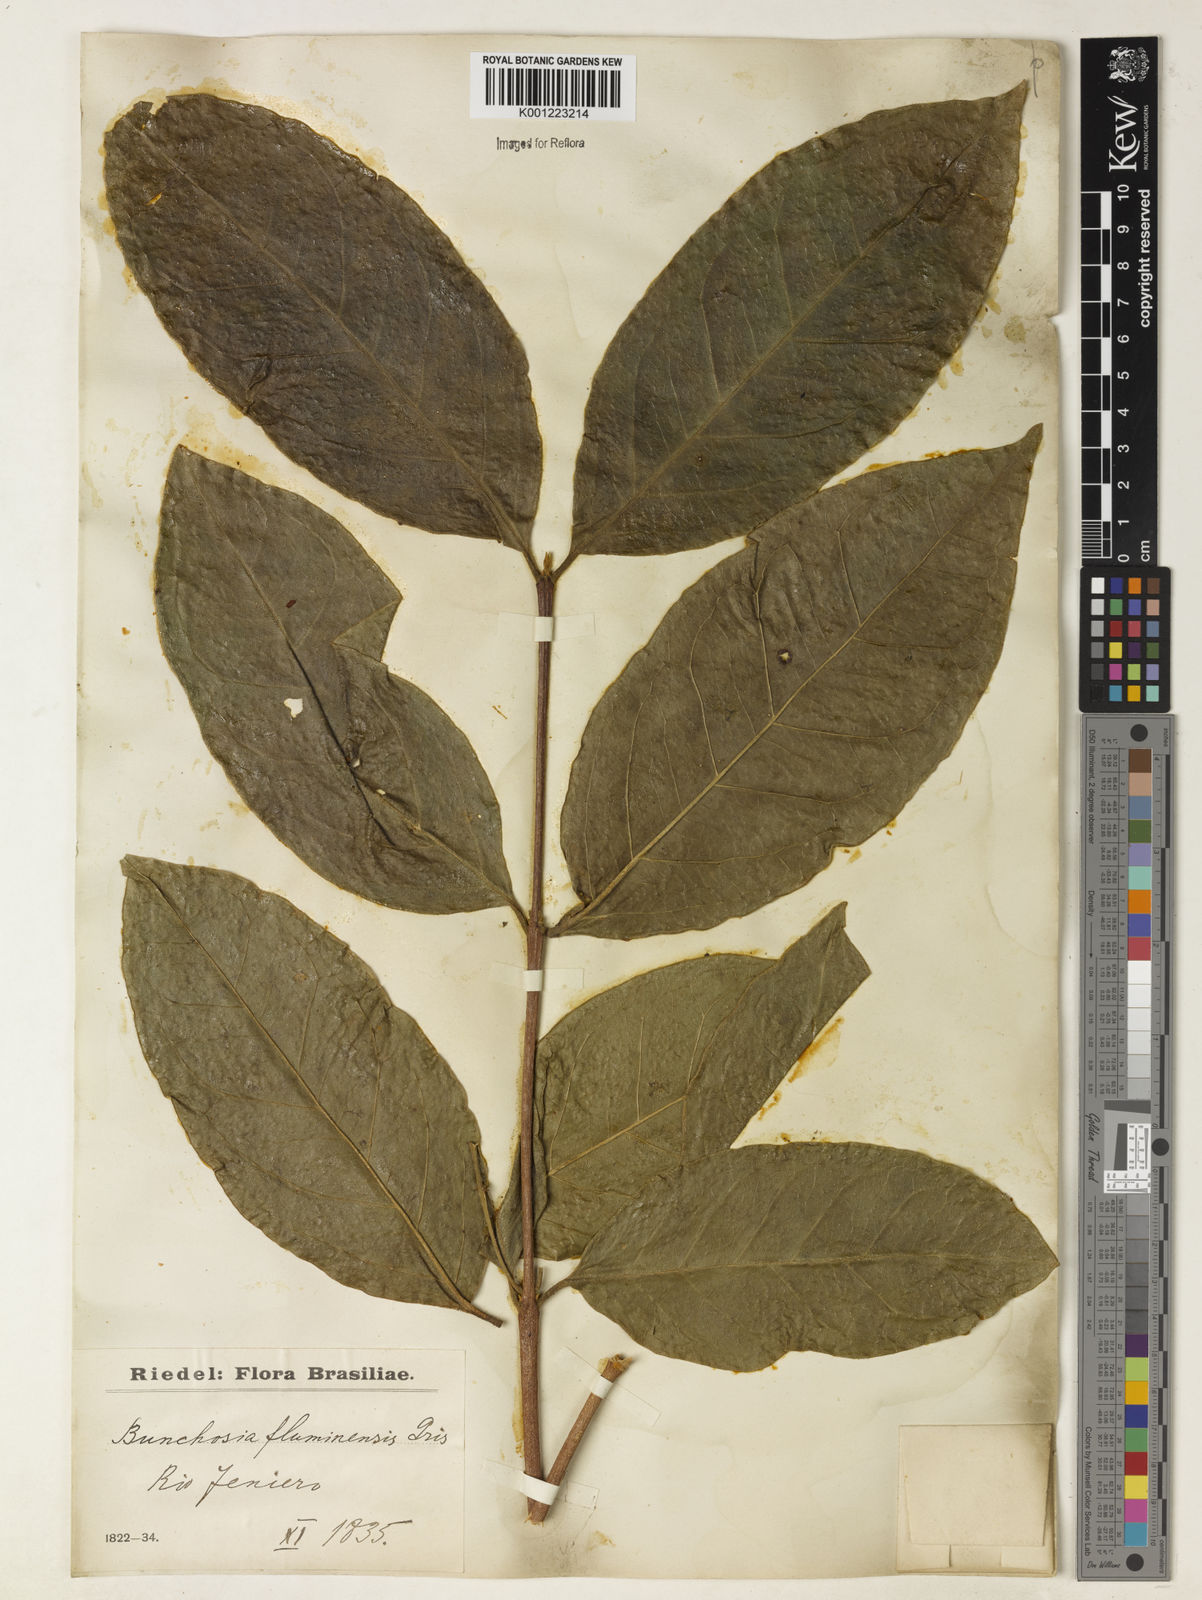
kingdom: Plantae
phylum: Tracheophyta
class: Magnoliopsida
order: Malpighiales
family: Malpighiaceae
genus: Bunchosia
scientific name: Bunchosia fluminensis
